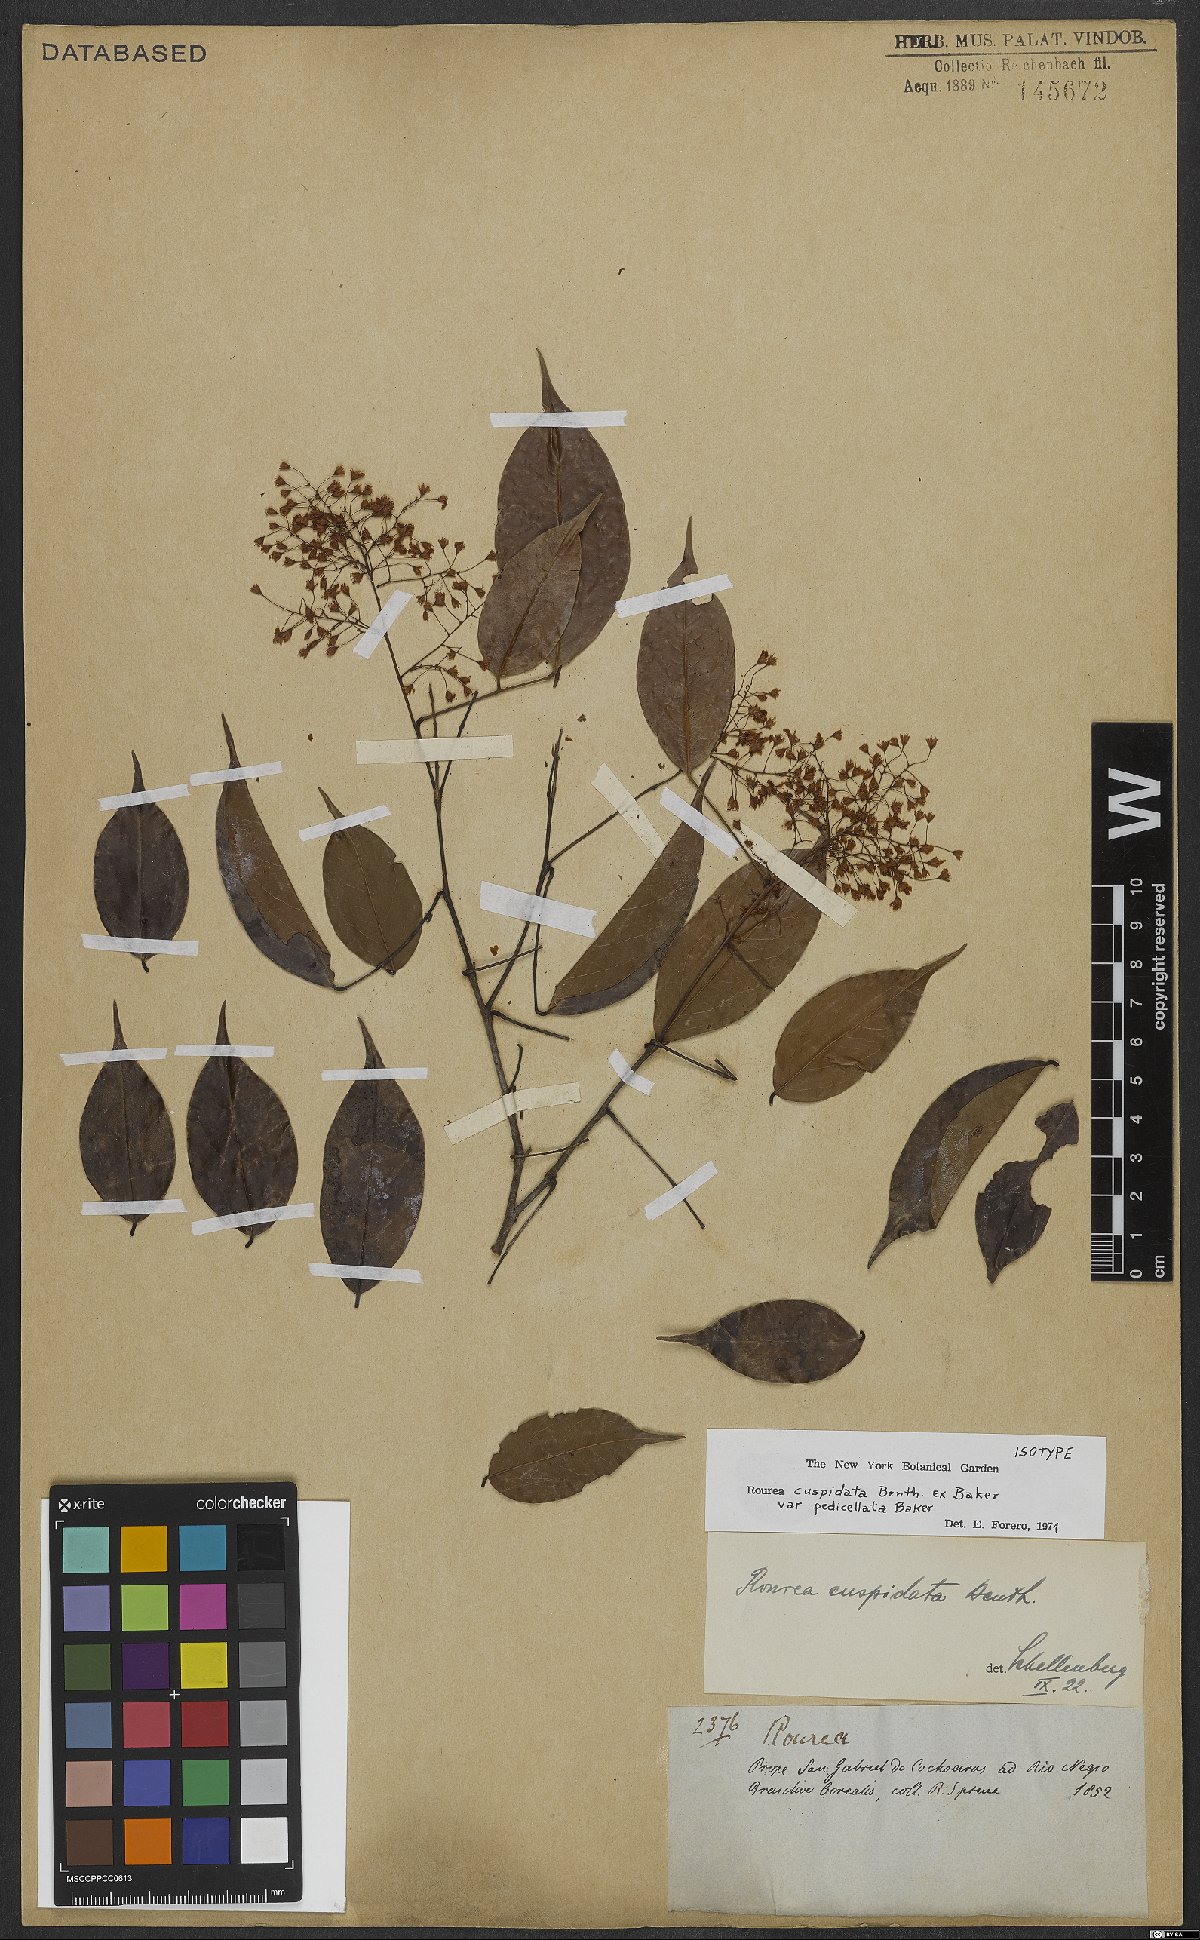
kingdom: Plantae
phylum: Tracheophyta
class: Magnoliopsida
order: Oxalidales
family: Connaraceae
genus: Rourea
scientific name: Rourea cuspidata
